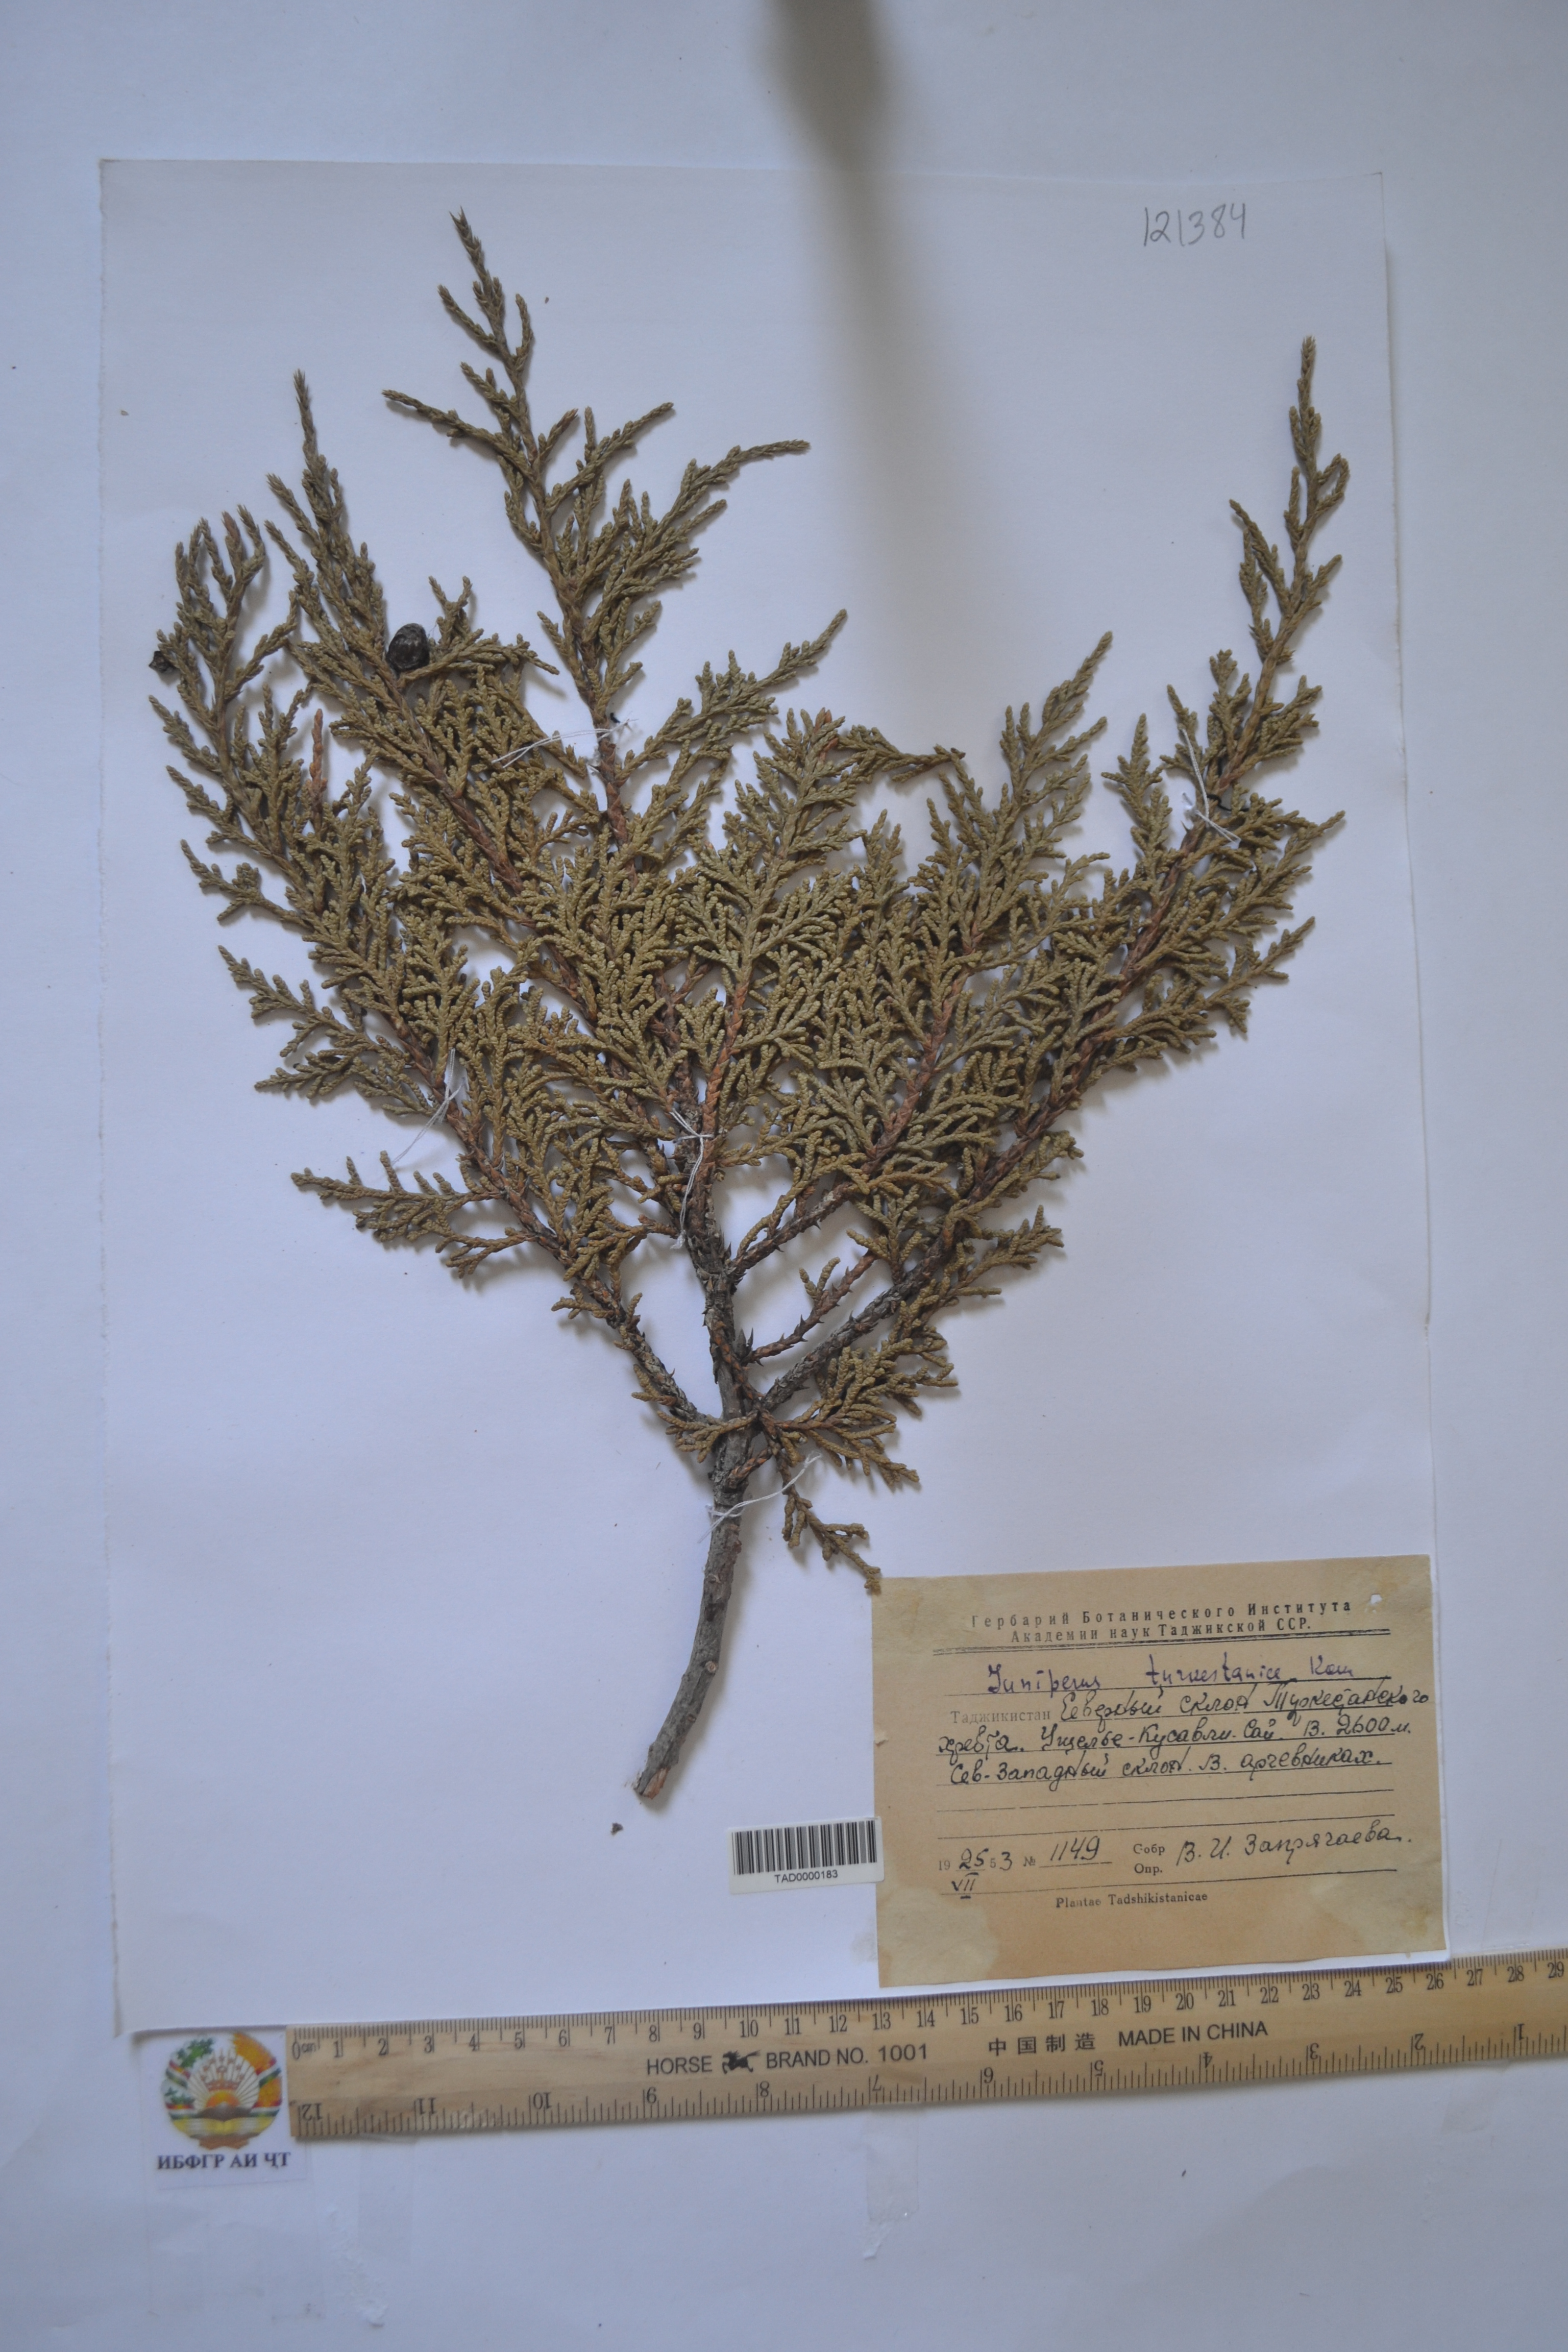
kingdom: Plantae
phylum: Tracheophyta
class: Pinopsida
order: Pinales
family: Cupressaceae
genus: Juniperus
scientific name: Juniperus pseudosabina
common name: Turkestan juniper
